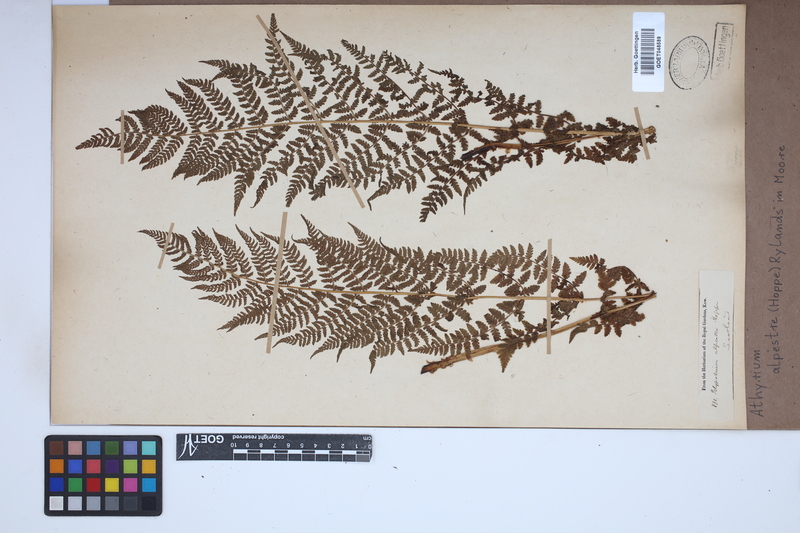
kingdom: Plantae
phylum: Tracheophyta
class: Polypodiopsida
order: Polypodiales
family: Athyriaceae
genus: Pseudathyrium
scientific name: Pseudathyrium alpestre
